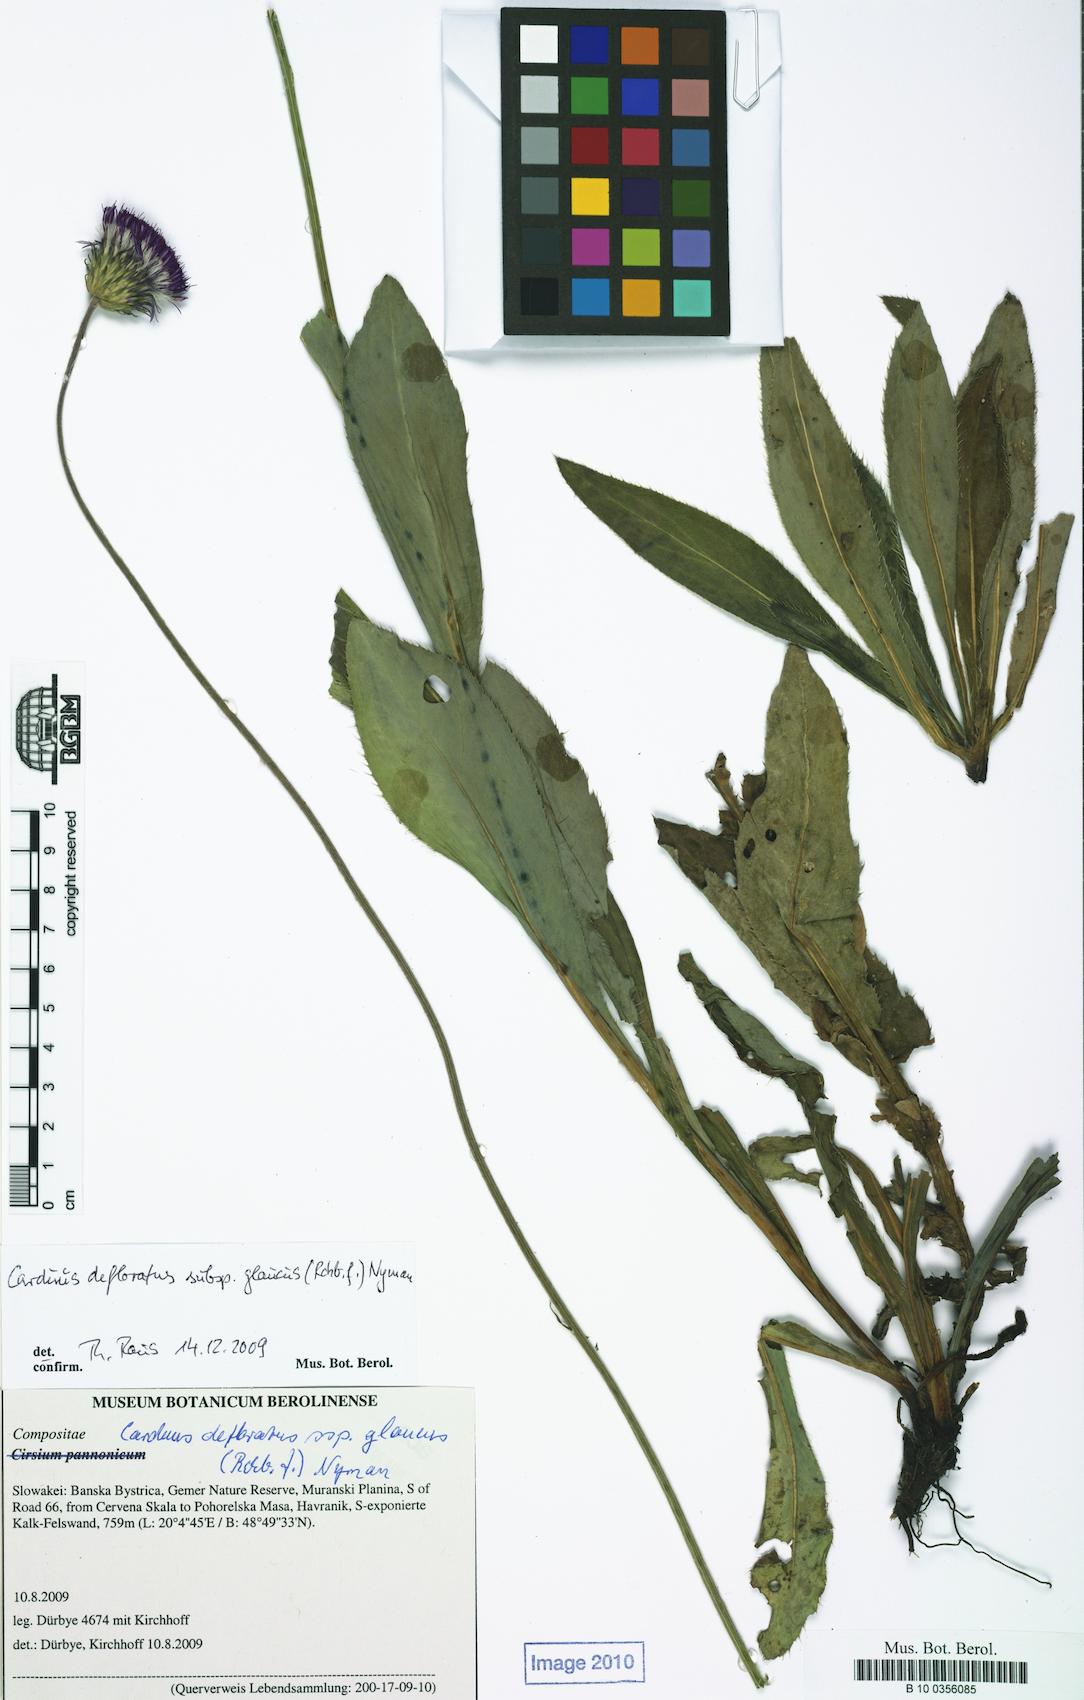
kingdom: Plantae
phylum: Tracheophyta
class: Magnoliopsida
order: Asterales
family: Asteraceae
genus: Carduus
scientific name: Carduus defloratus
